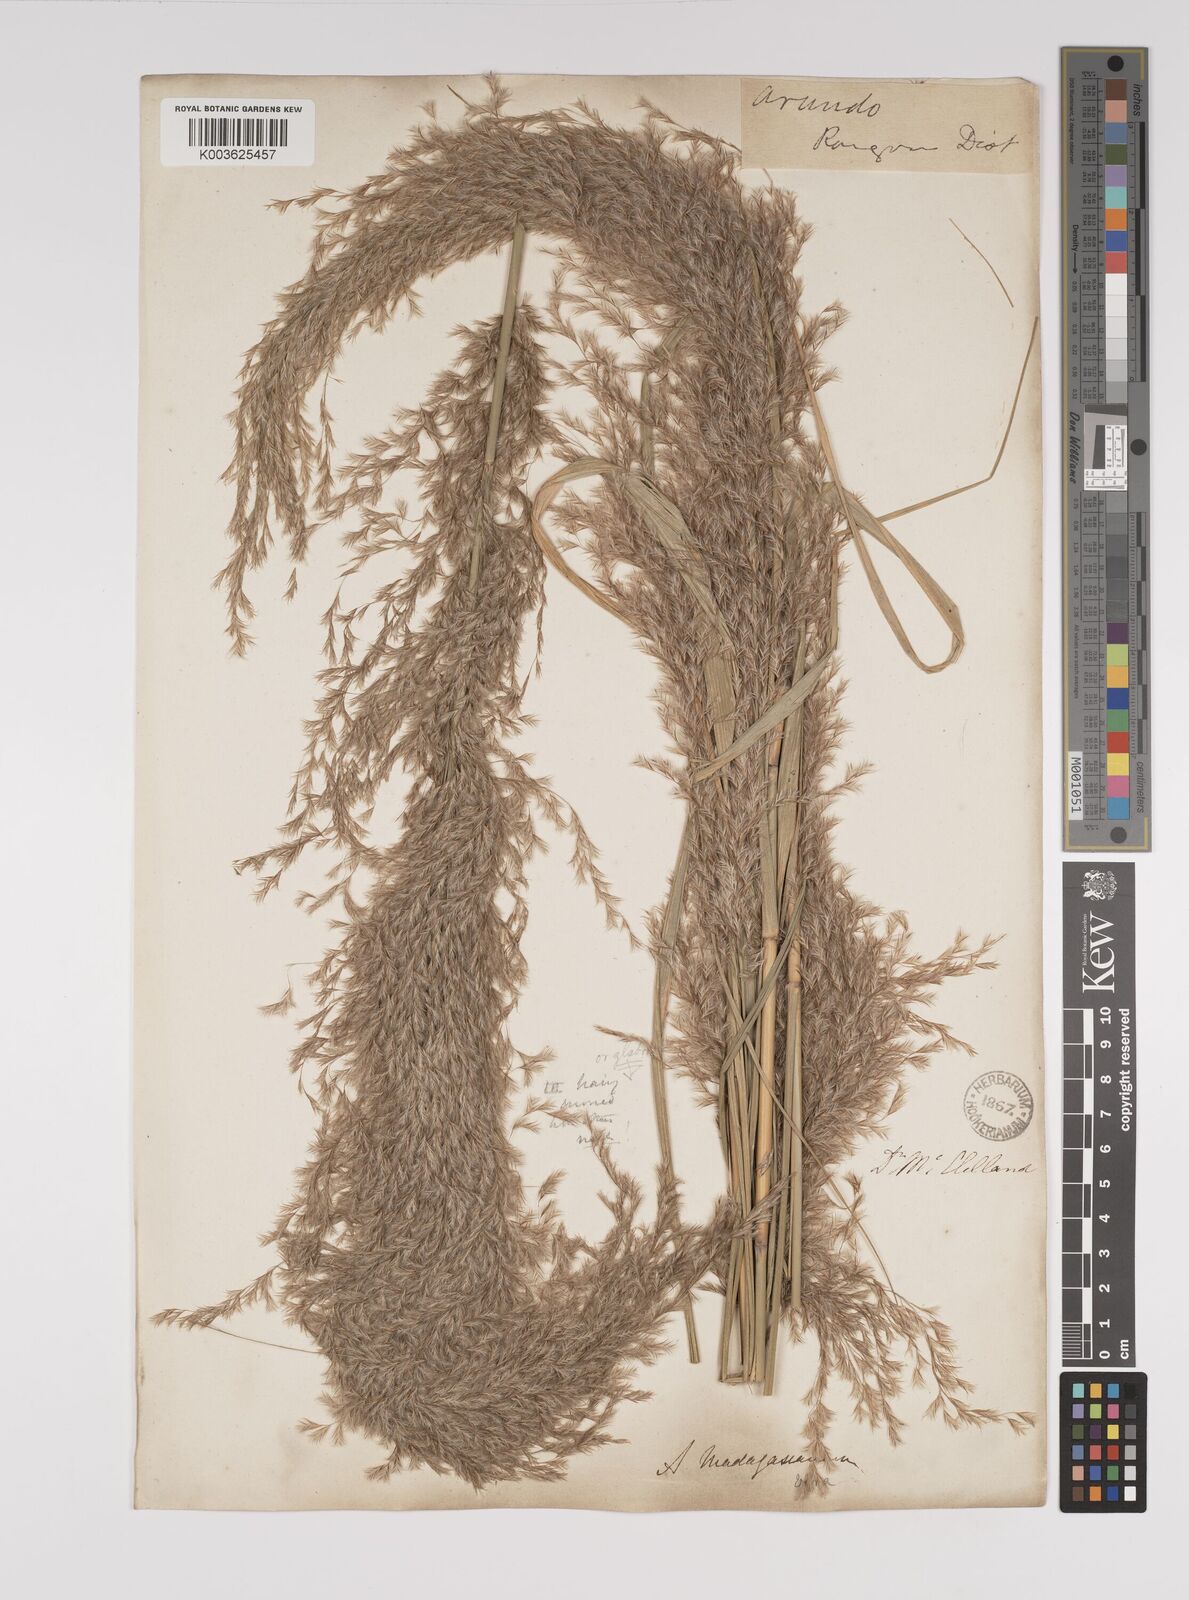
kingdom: Plantae
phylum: Tracheophyta
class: Liliopsida
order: Poales
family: Poaceae
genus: Neyraudia
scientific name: Neyraudia reynaudiana
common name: Silkreed
